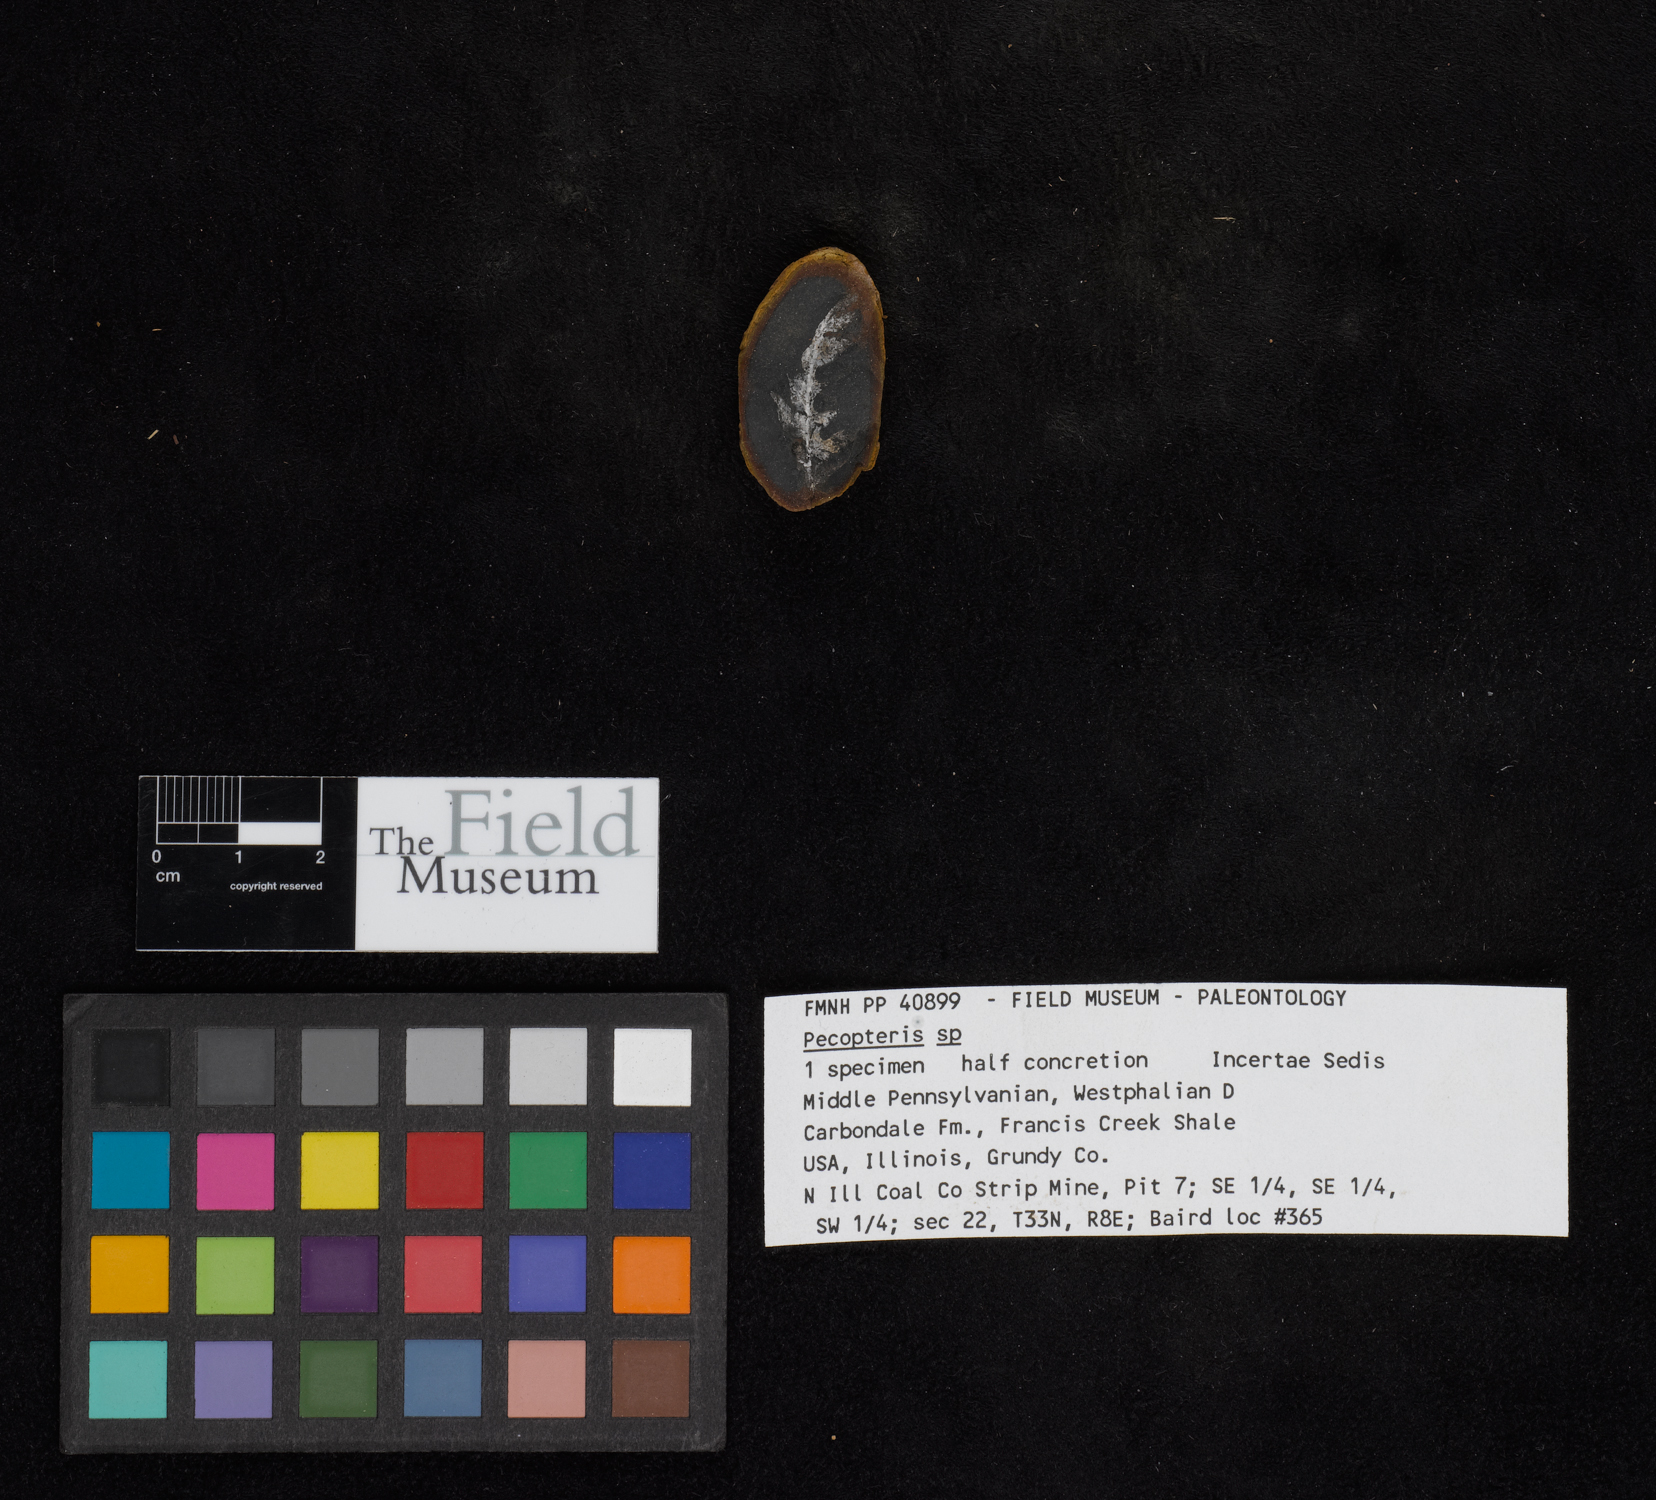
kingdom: Plantae
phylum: Tracheophyta
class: Polypodiopsida
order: Marattiales
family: Asterothecaceae
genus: Pecopteris
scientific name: Pecopteris
